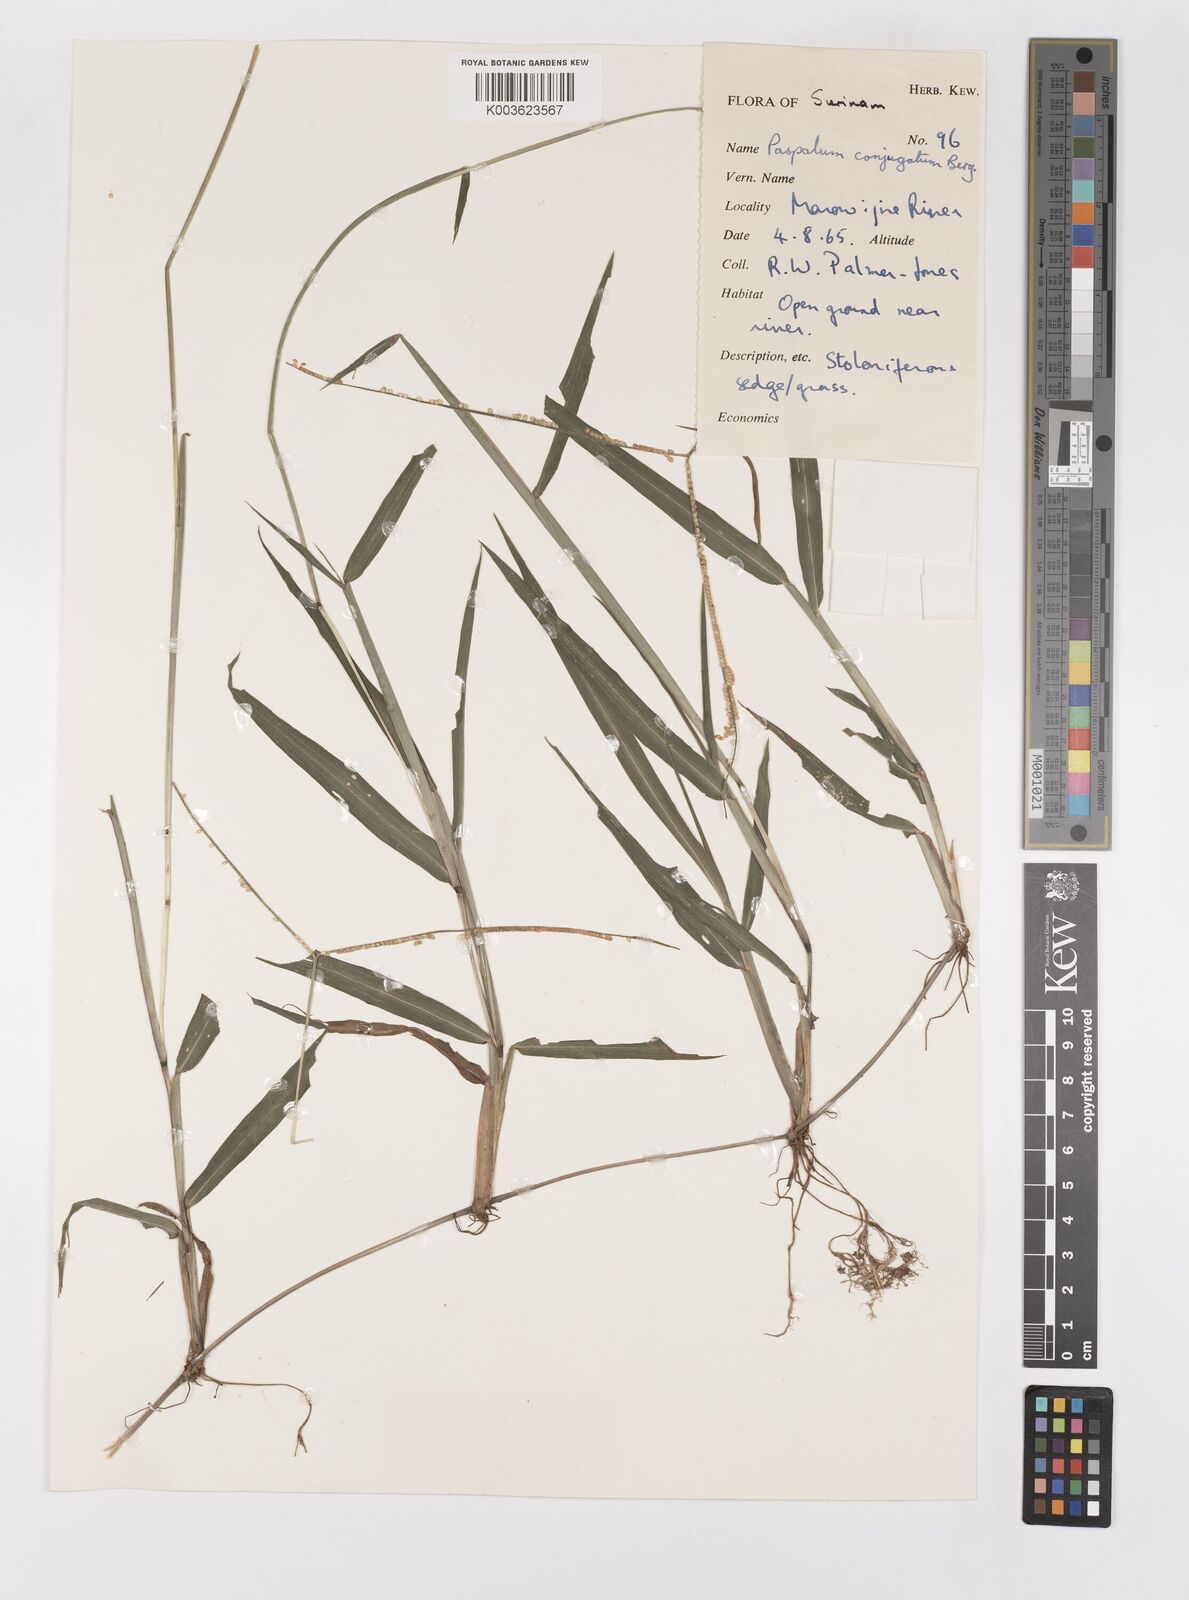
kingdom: Plantae
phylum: Tracheophyta
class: Liliopsida
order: Poales
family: Poaceae
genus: Paspalum
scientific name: Paspalum conjugatum
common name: Hilograss
